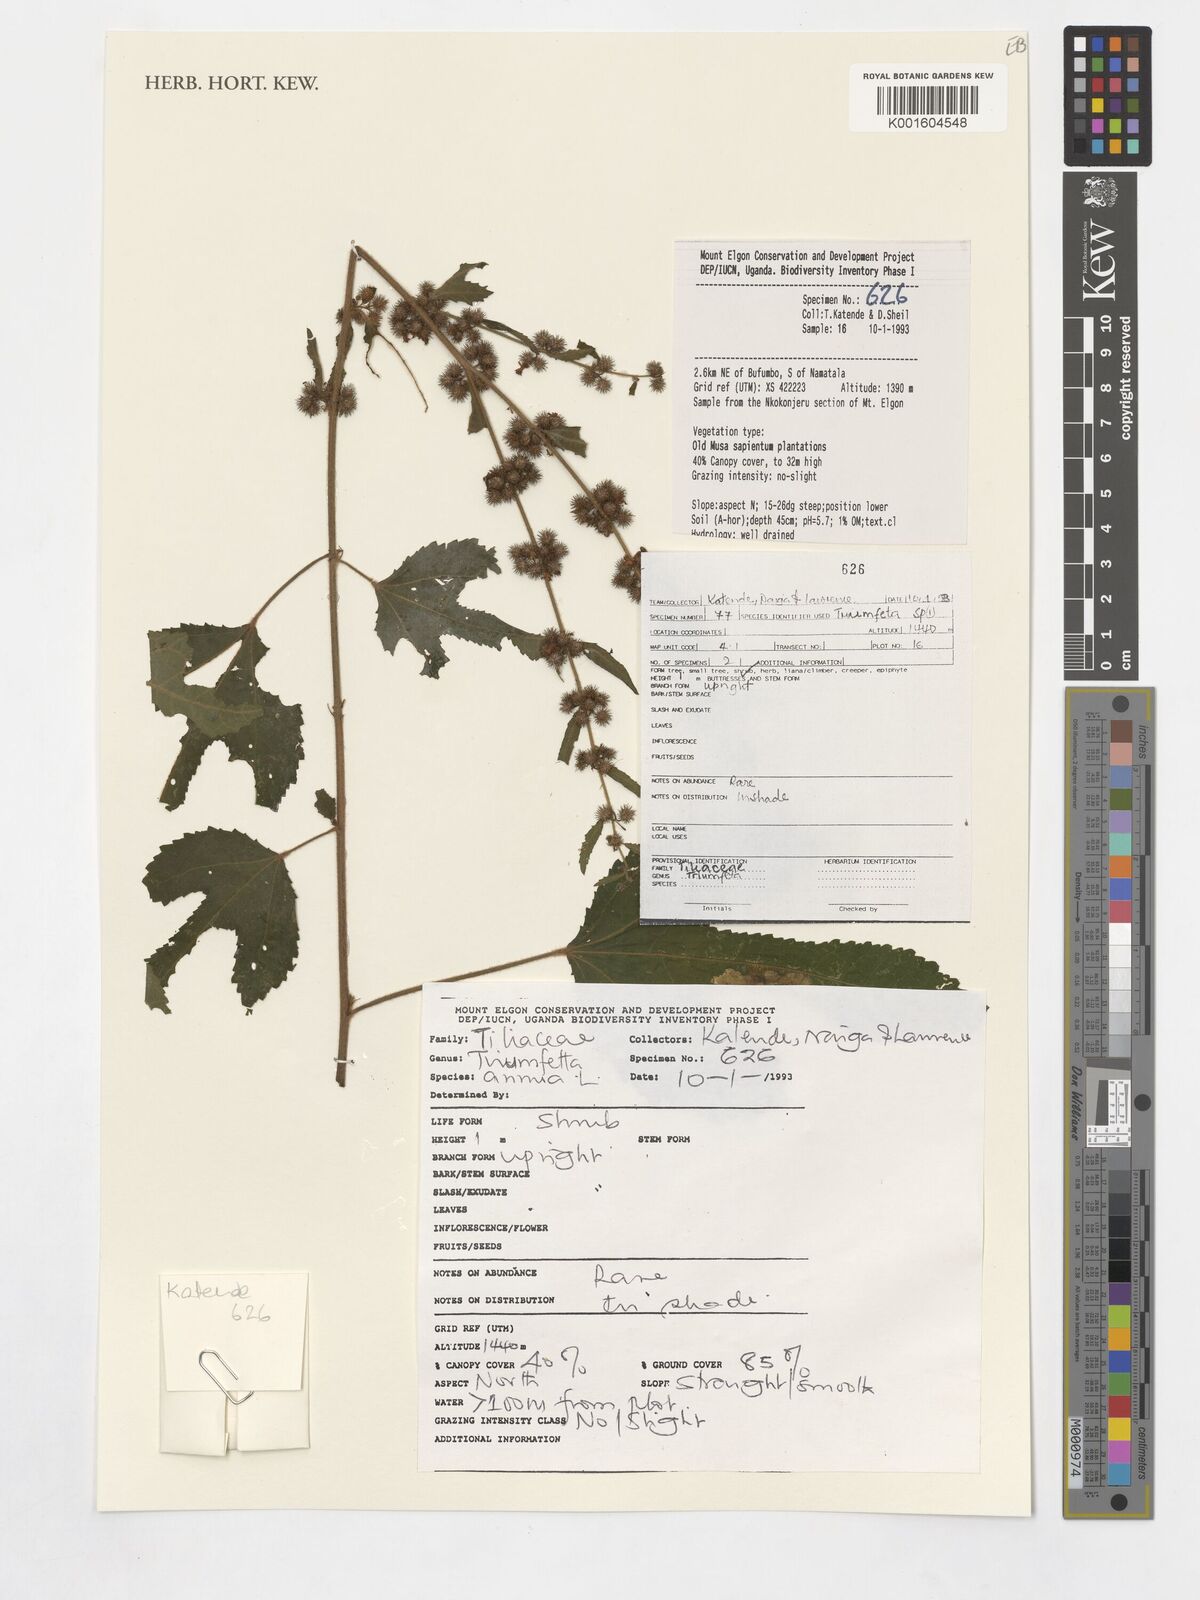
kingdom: Plantae
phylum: Tracheophyta
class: Magnoliopsida
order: Malvales
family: Malvaceae
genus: Triumfetta
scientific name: Triumfetta
